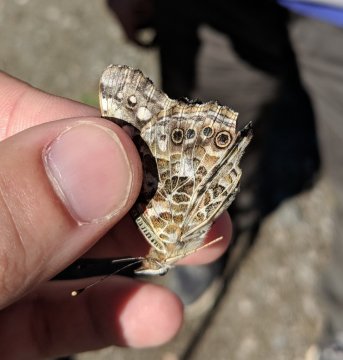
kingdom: Animalia
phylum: Arthropoda
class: Insecta
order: Lepidoptera
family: Nymphalidae
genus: Vanessa
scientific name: Vanessa cardui
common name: Painted Lady
